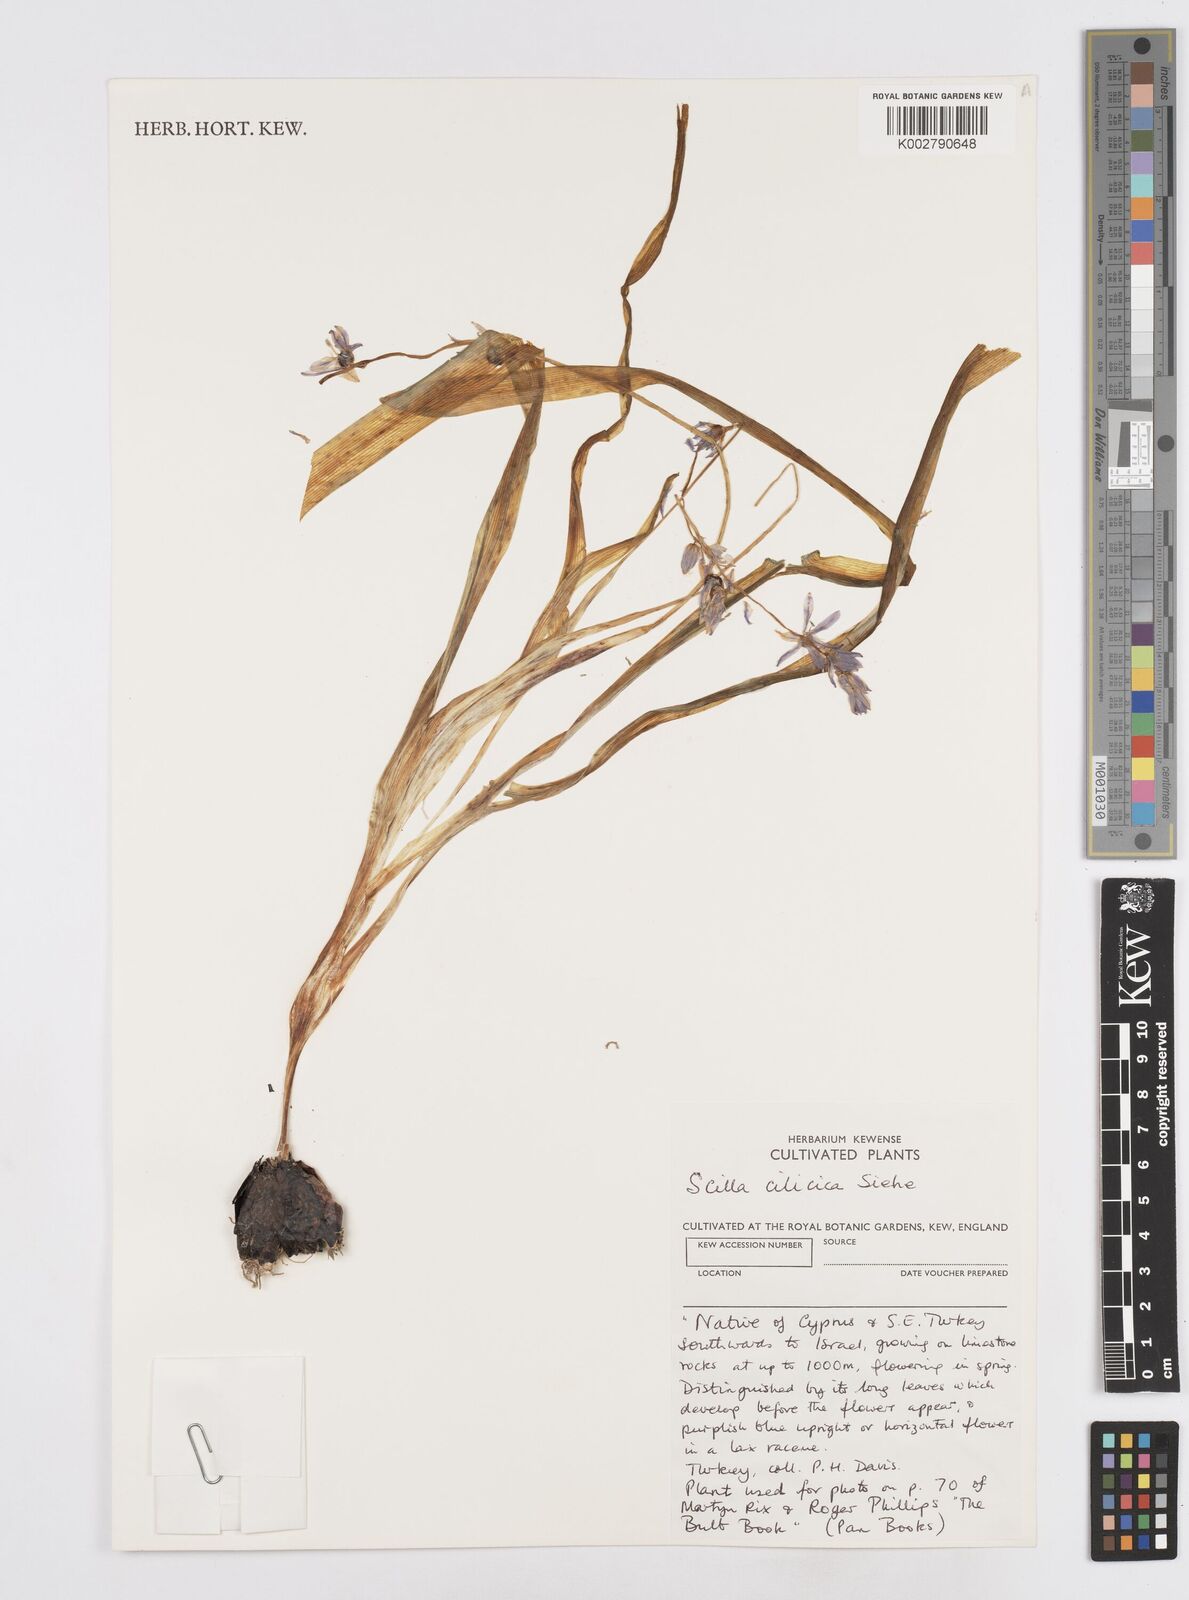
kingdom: Plantae
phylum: Tracheophyta
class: Liliopsida
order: Asparagales
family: Asparagaceae
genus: Scilla
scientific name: Scilla cilicica
